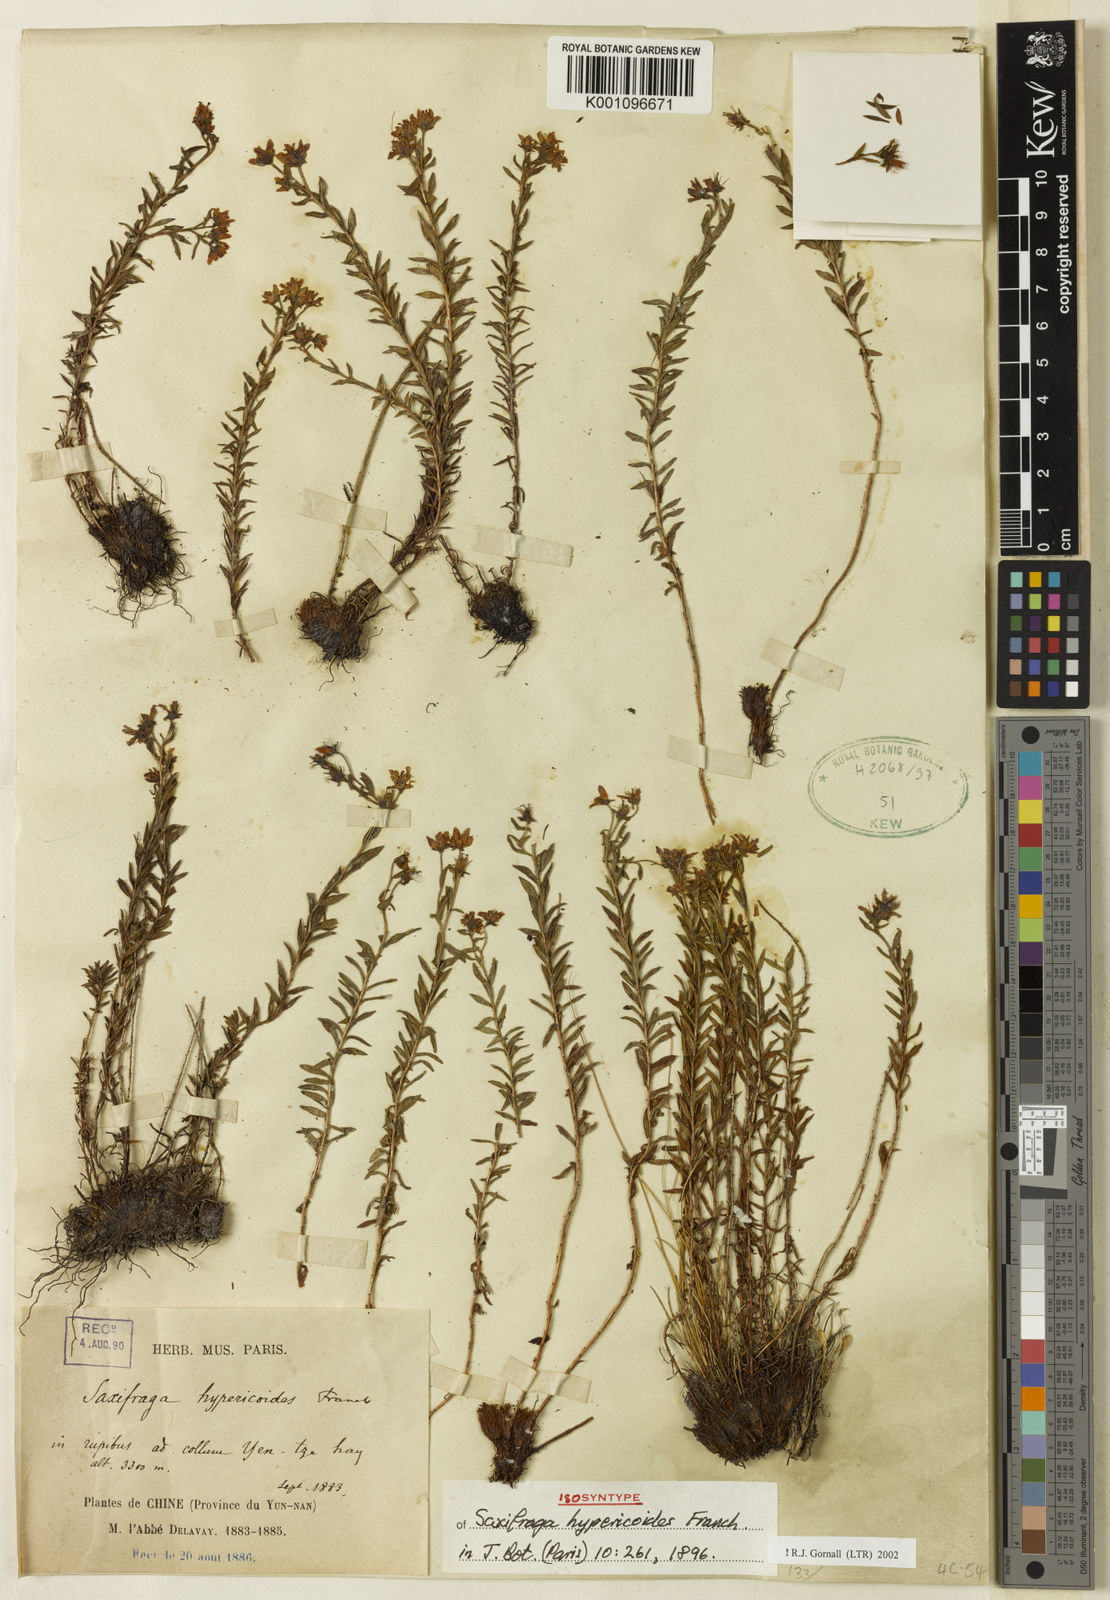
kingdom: Plantae
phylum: Tracheophyta
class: Magnoliopsida
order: Saxifragales
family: Saxifragaceae
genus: Saxifraga
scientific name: Saxifraga hypericoides
